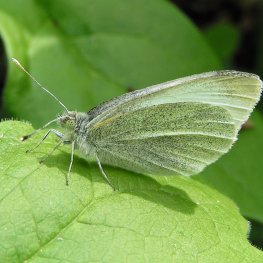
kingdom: Animalia
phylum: Arthropoda
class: Insecta
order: Lepidoptera
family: Pieridae
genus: Pieris
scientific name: Pieris rapae
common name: Cabbage White
